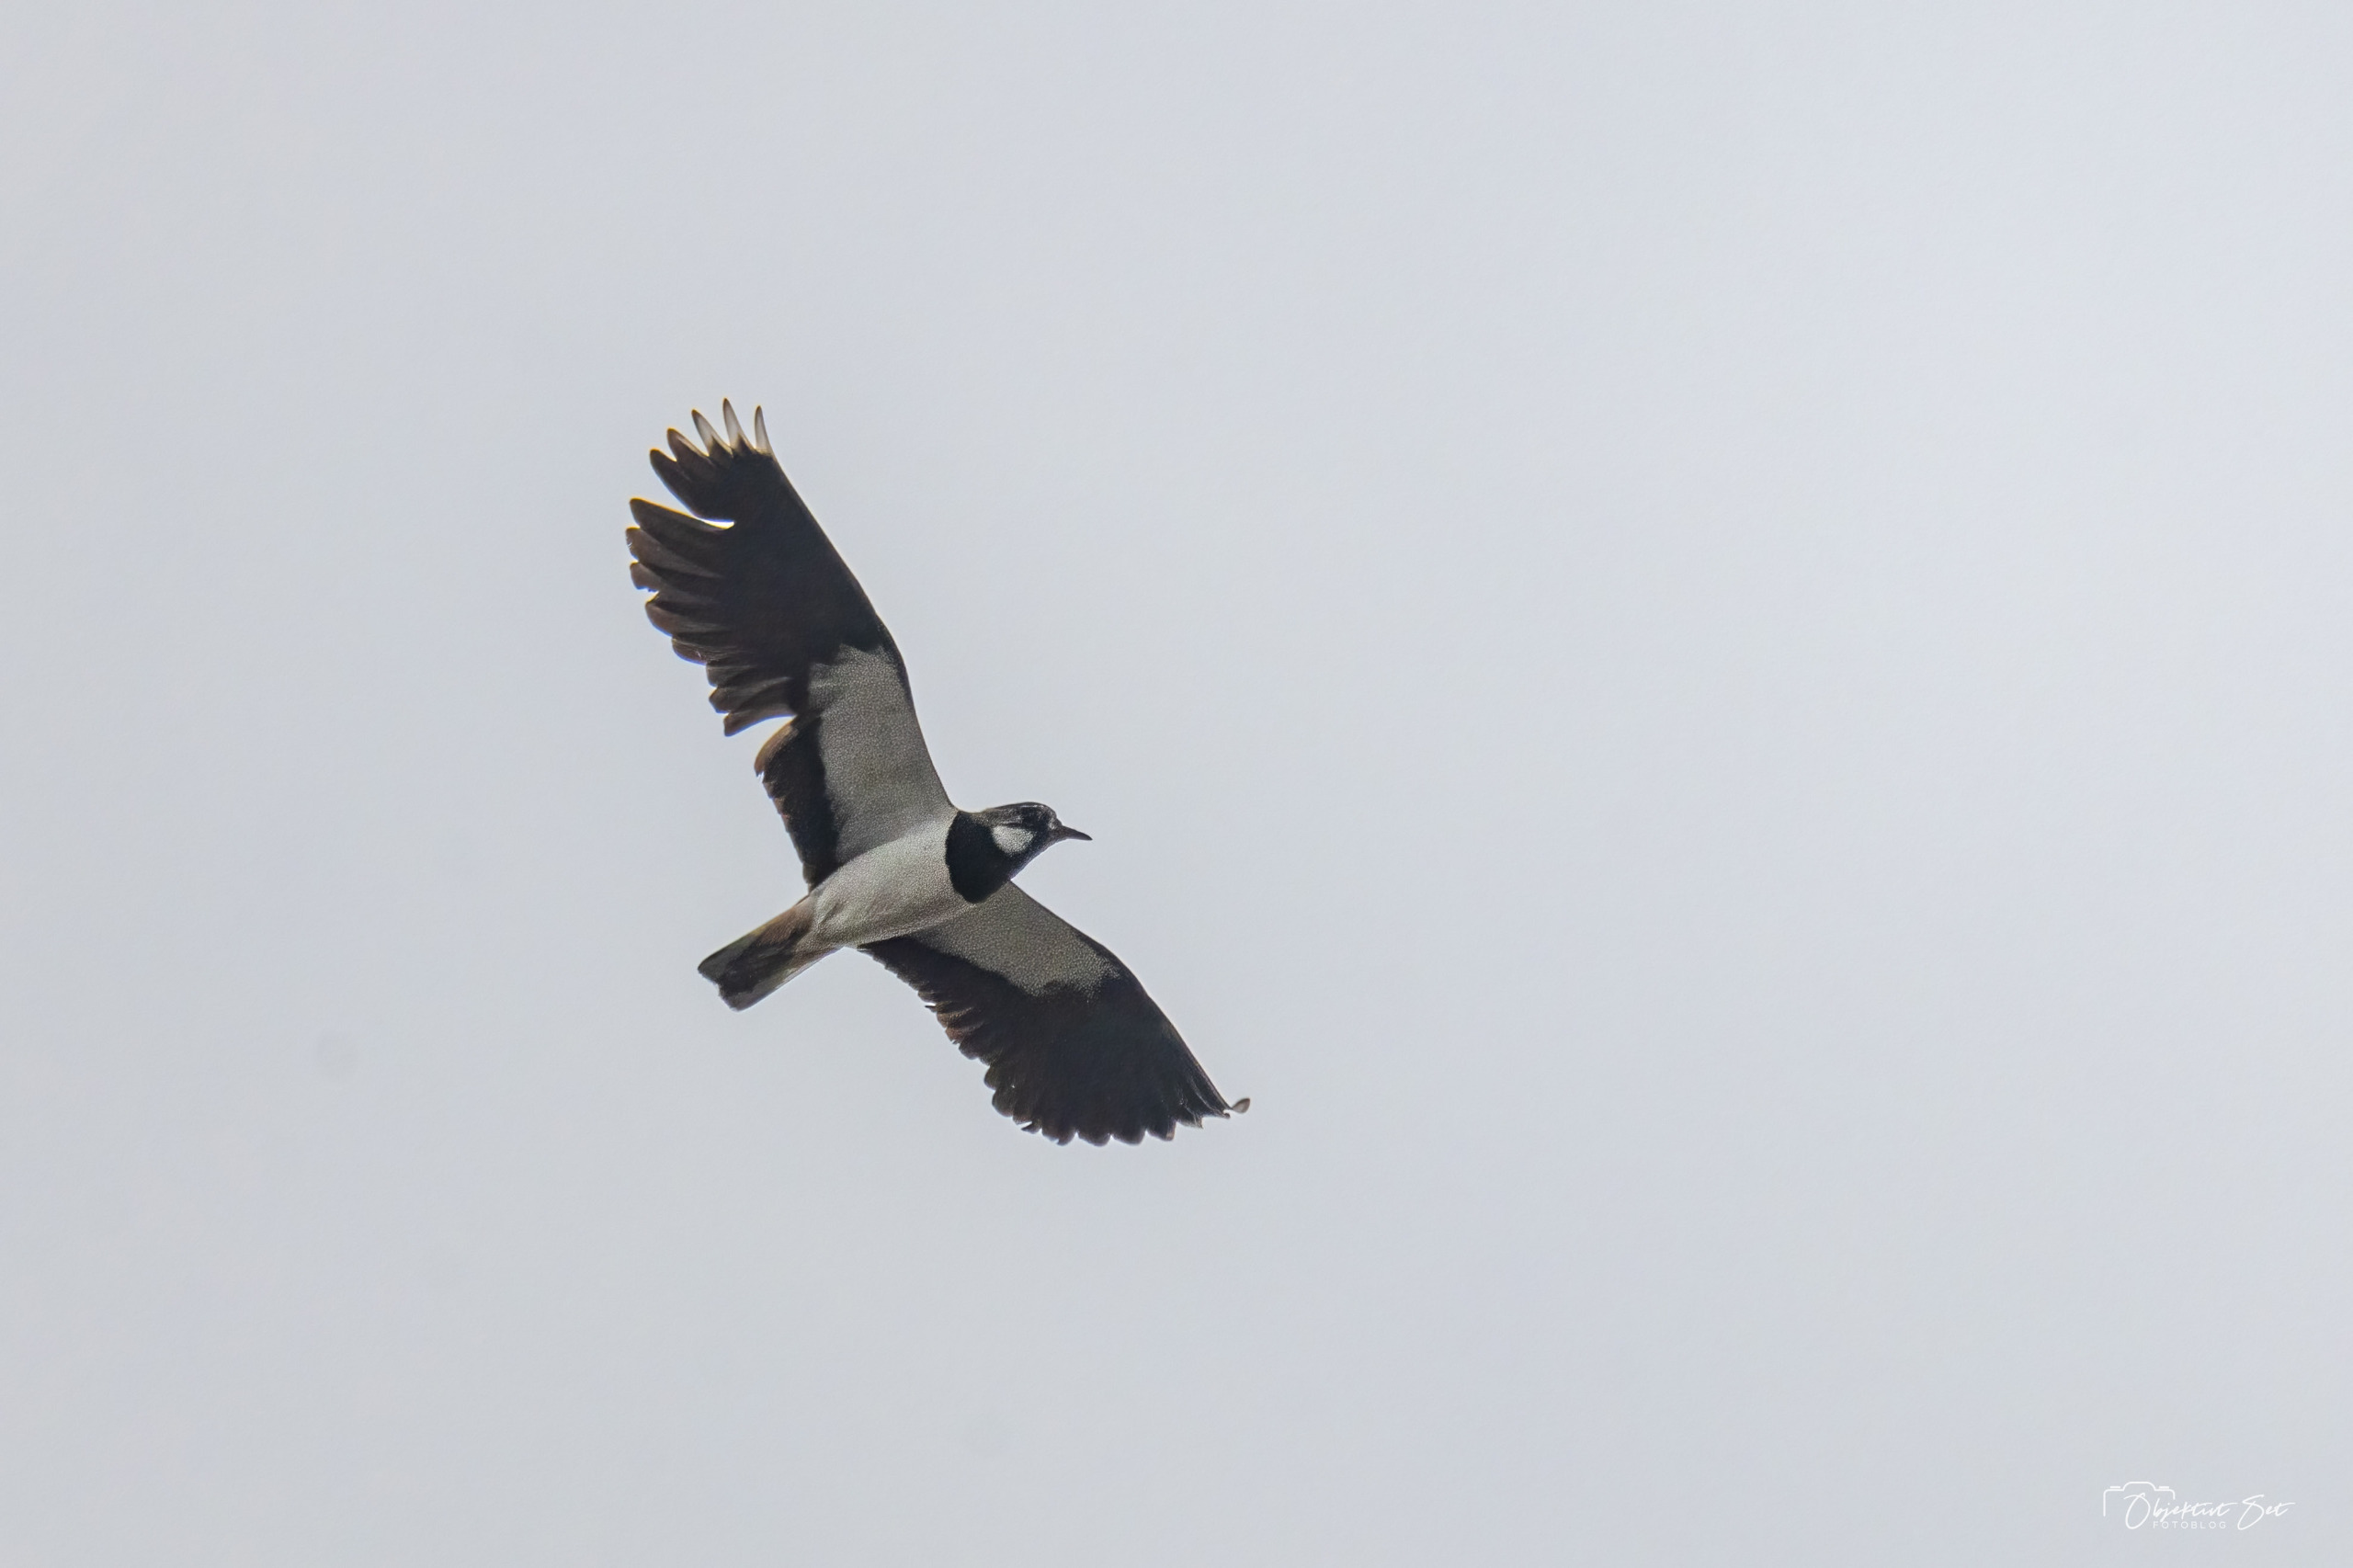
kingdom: Animalia
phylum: Chordata
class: Aves
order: Charadriiformes
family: Charadriidae
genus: Vanellus
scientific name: Vanellus vanellus
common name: Vibe
